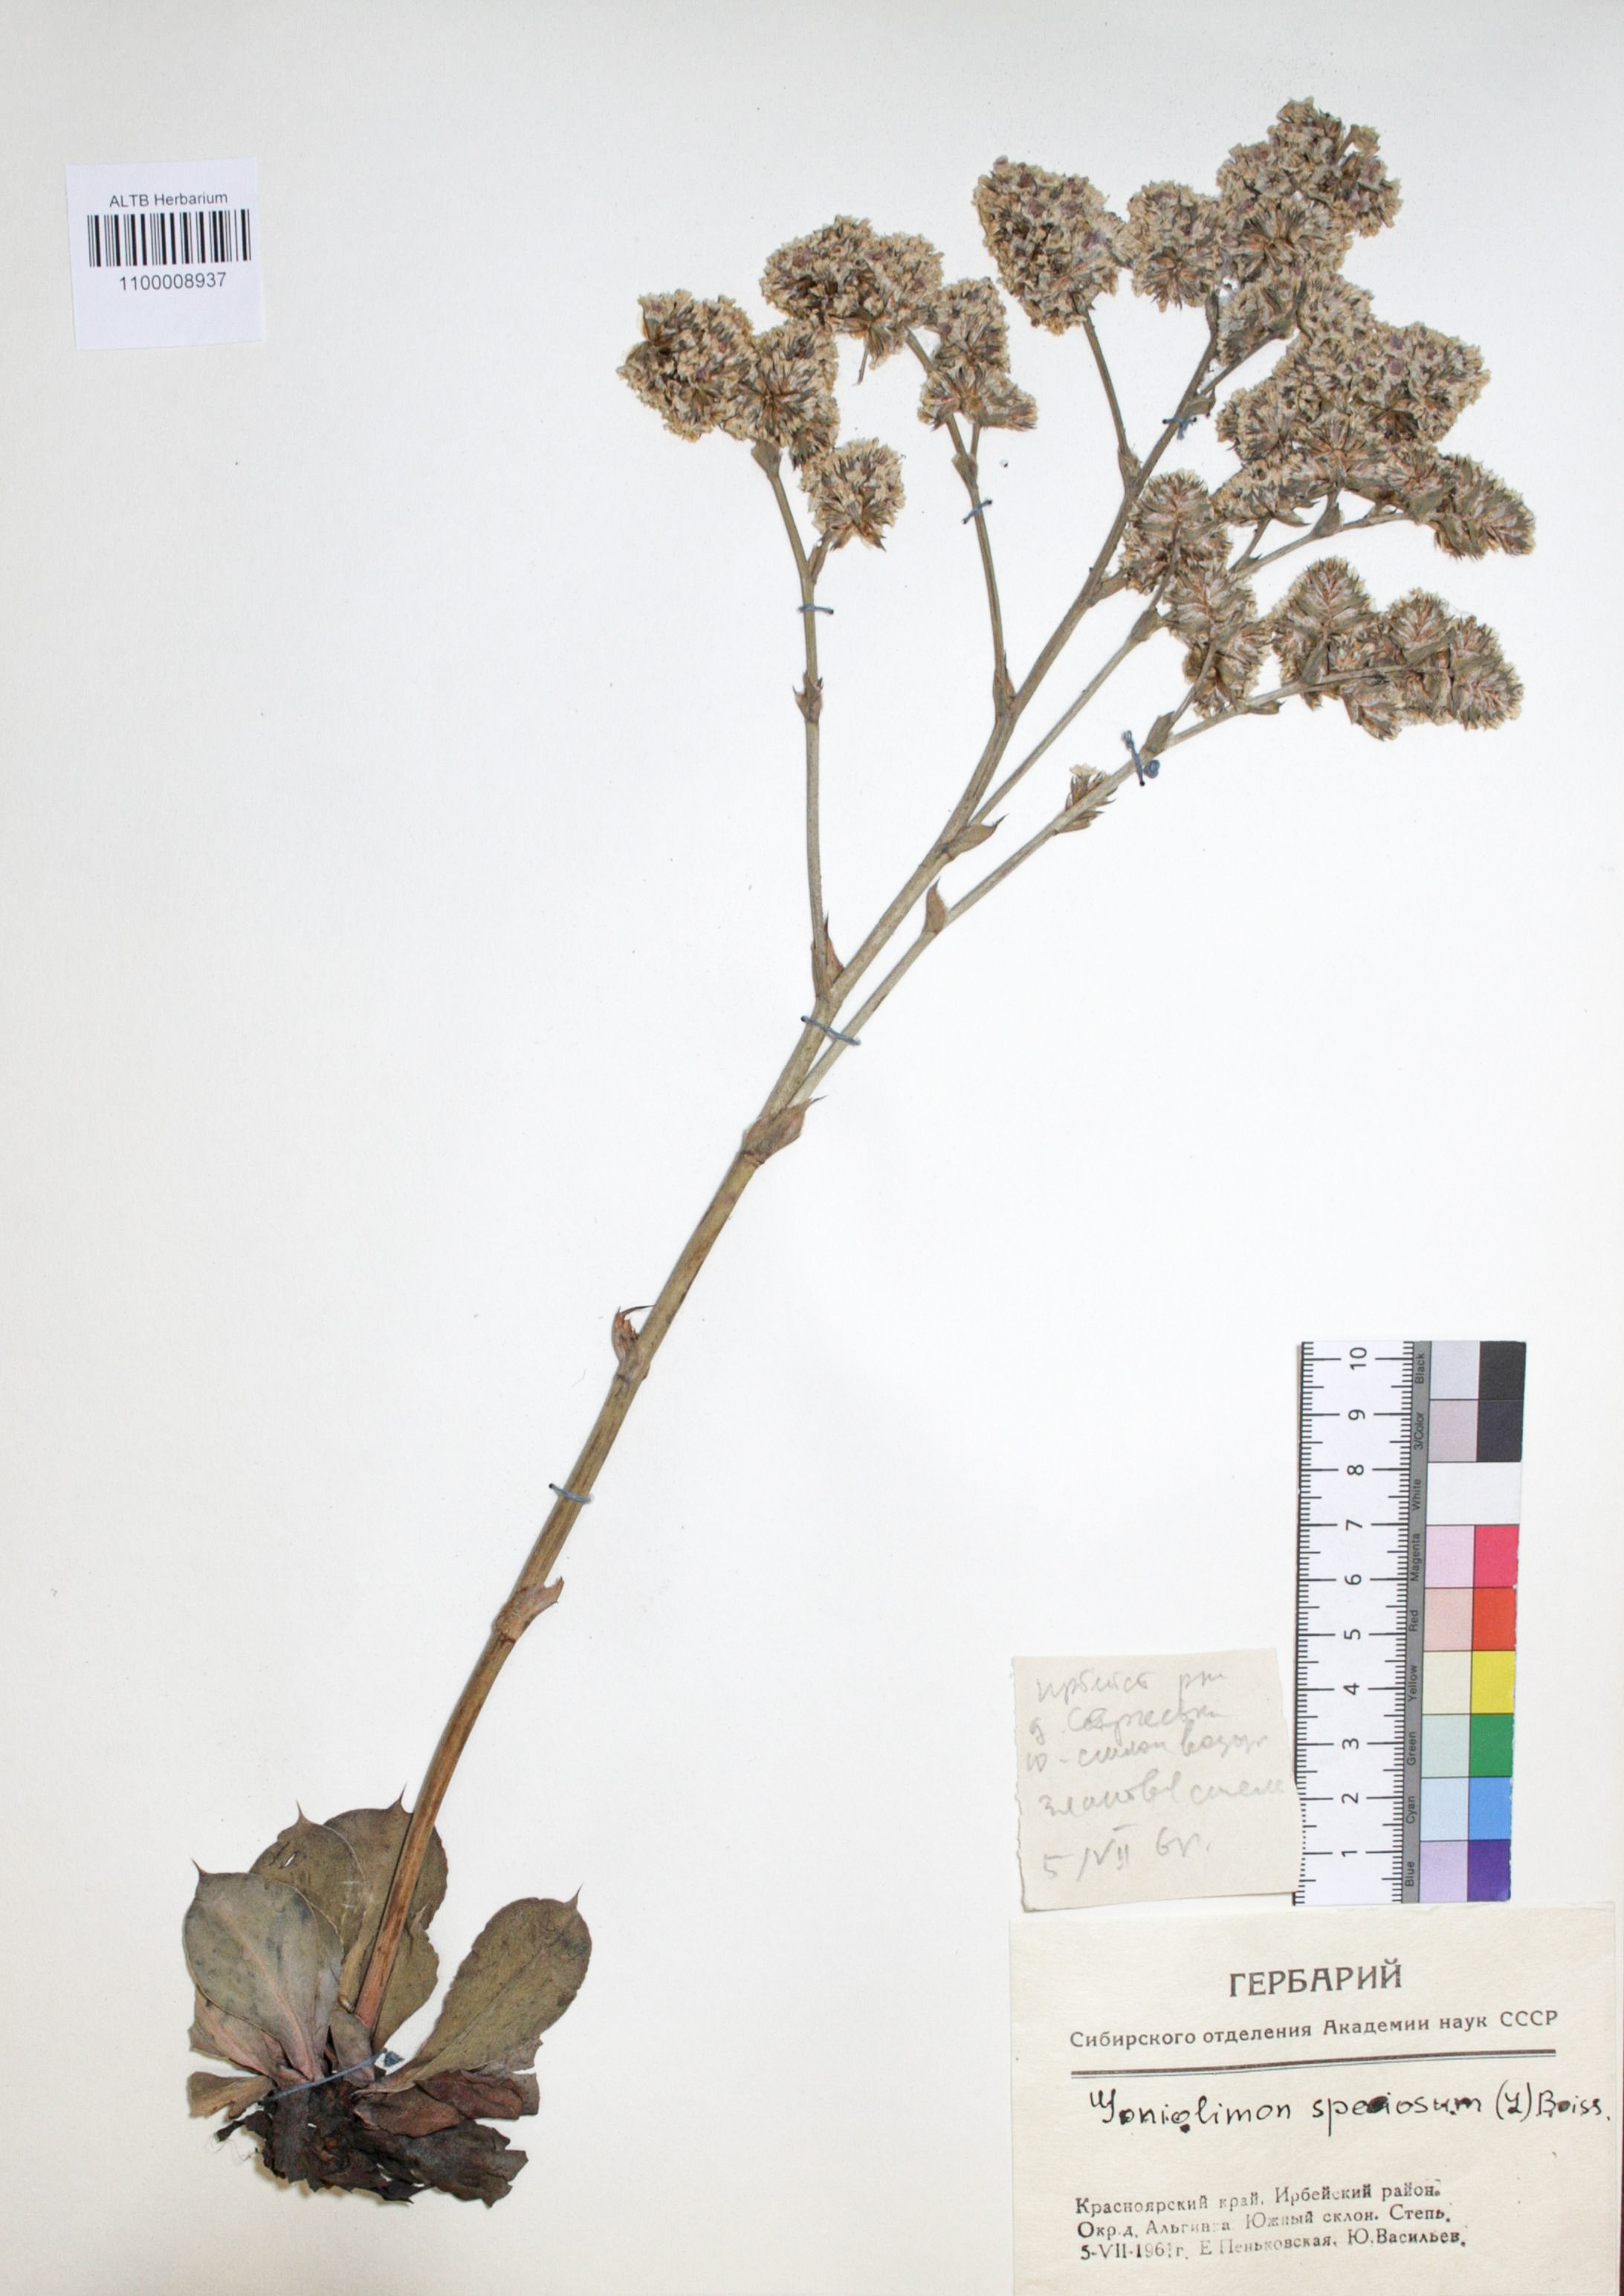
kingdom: Plantae
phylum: Tracheophyta
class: Magnoliopsida
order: Caryophyllales
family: Plumbaginaceae
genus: Goniolimon
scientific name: Goniolimon speciosum
